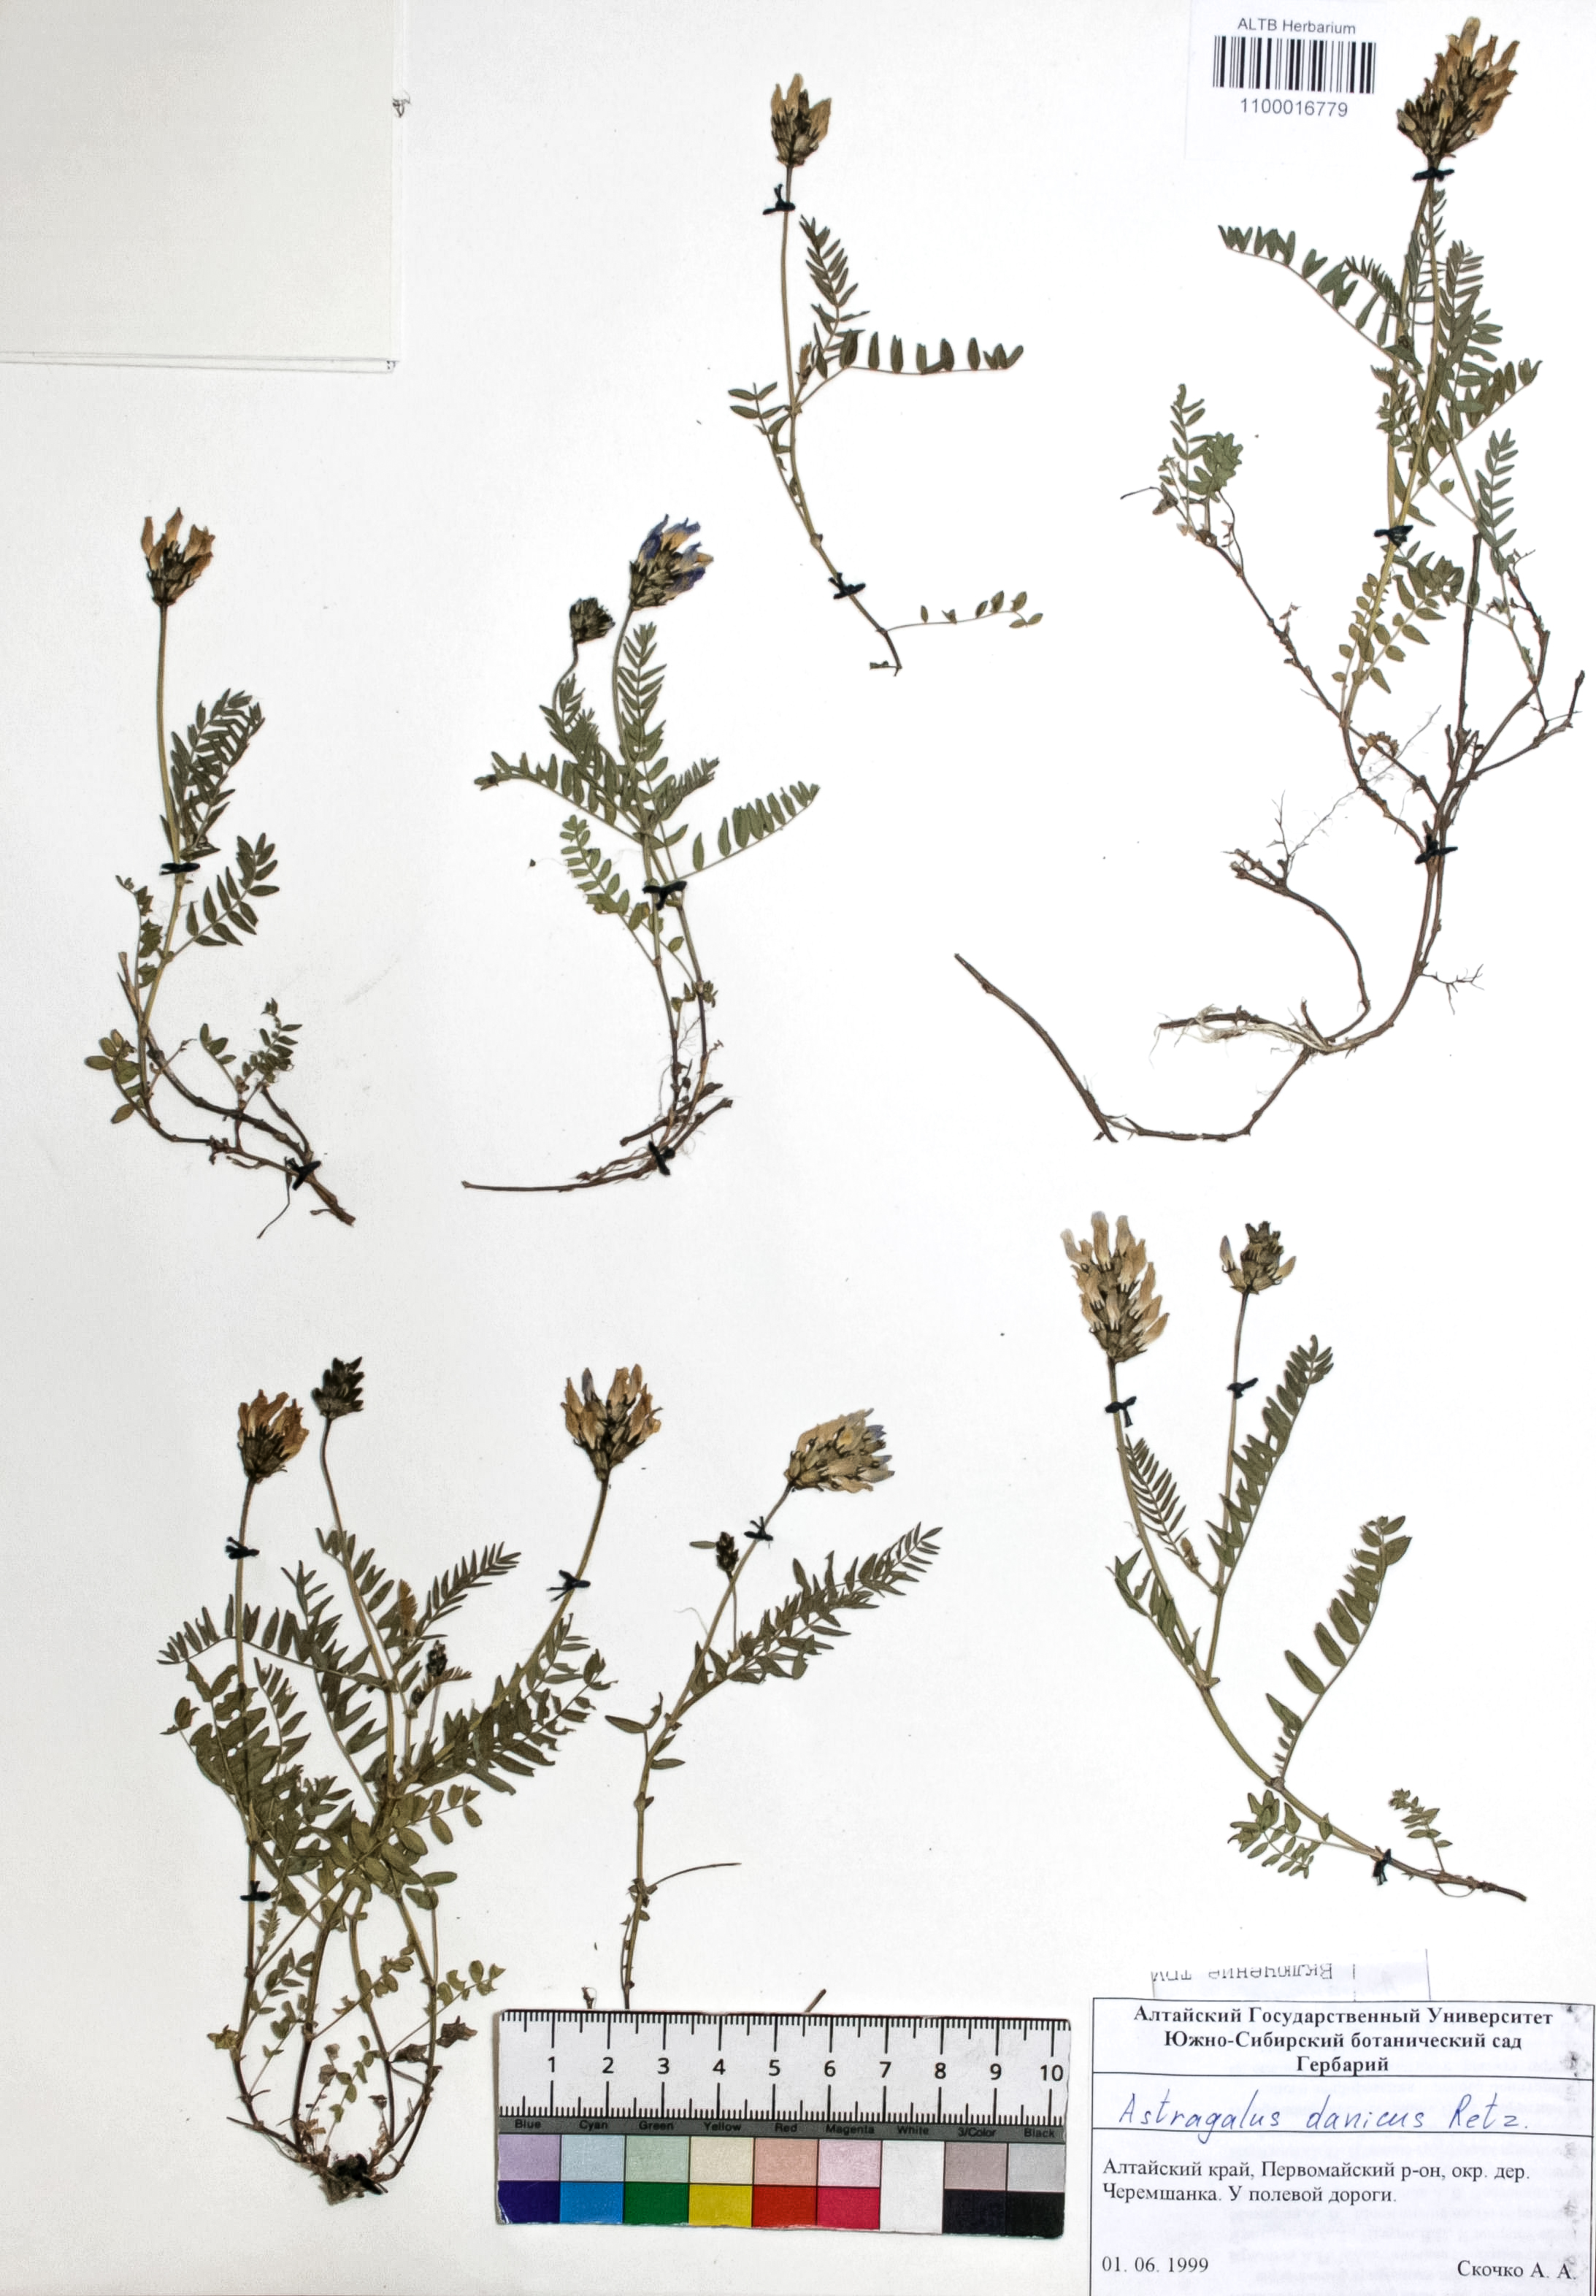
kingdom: Plantae
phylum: Tracheophyta
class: Magnoliopsida
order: Fabales
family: Fabaceae
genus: Astragalus
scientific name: Astragalus danicus
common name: Purple milk-vetch
